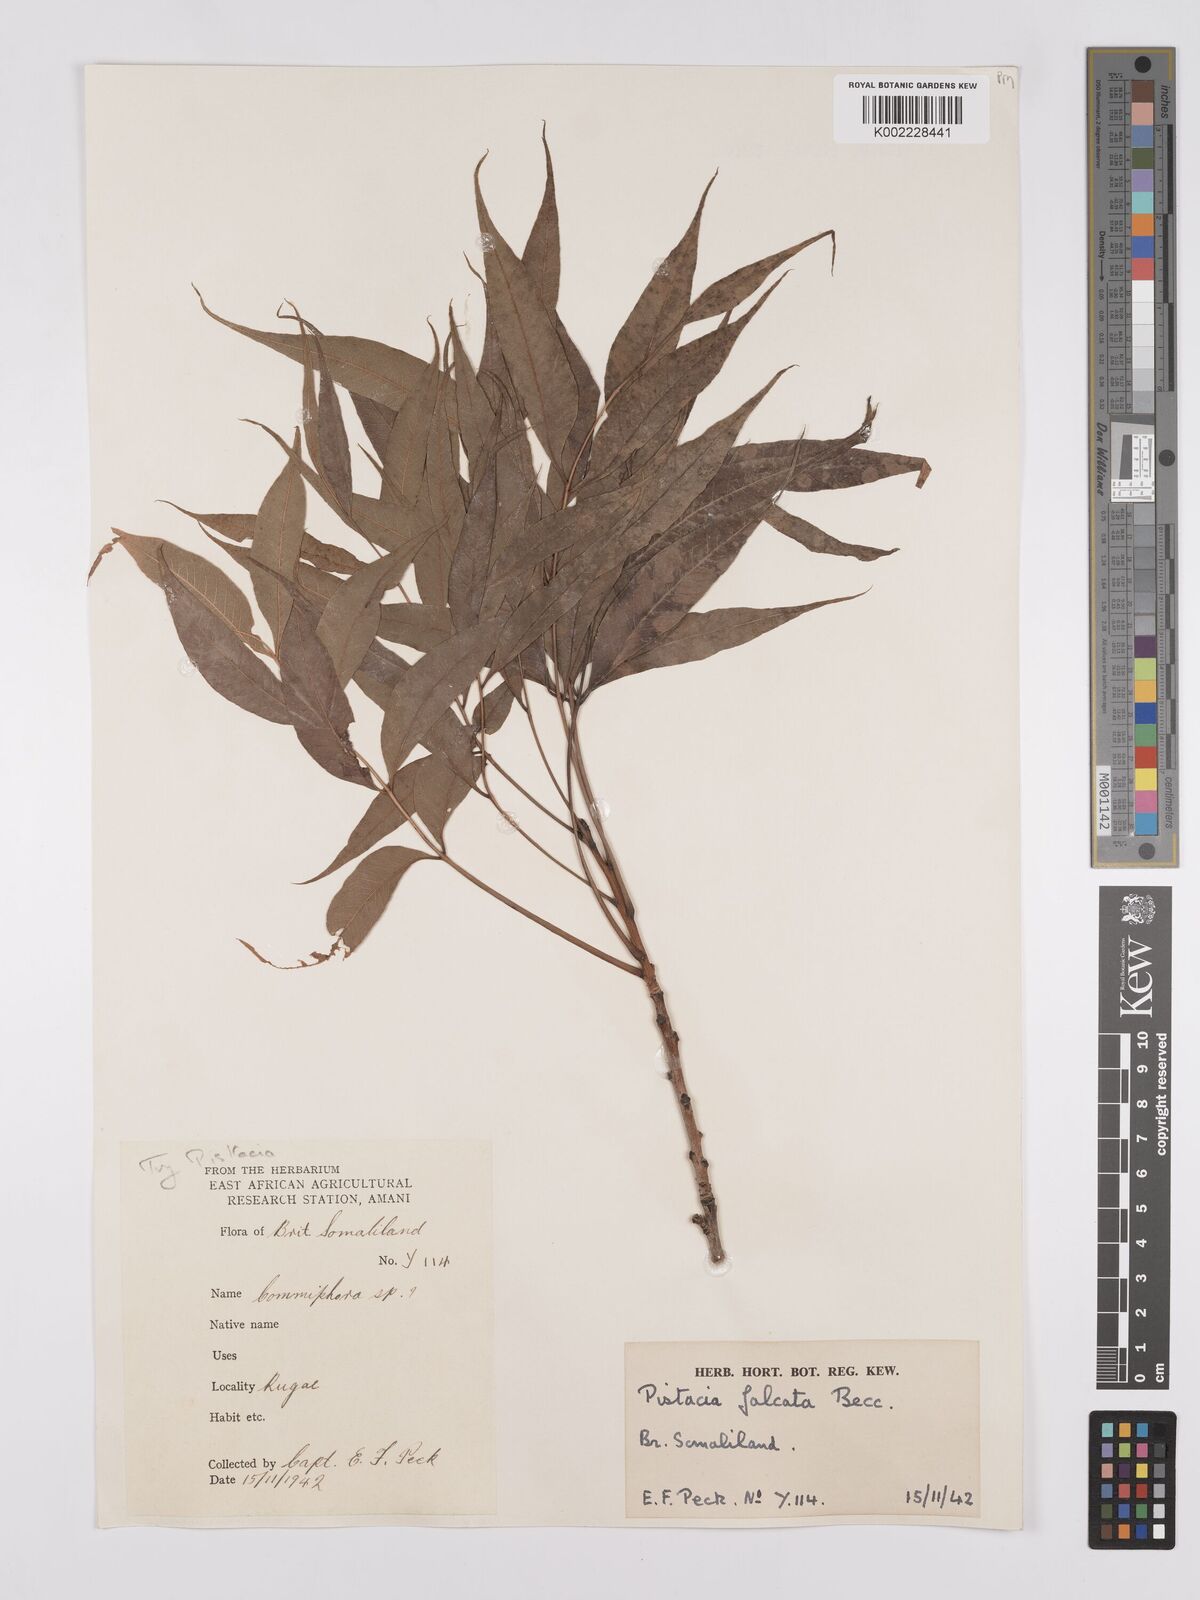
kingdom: Plantae
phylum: Tracheophyta
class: Magnoliopsida
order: Sapindales
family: Anacardiaceae
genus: Pistacia
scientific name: Pistacia falcata
